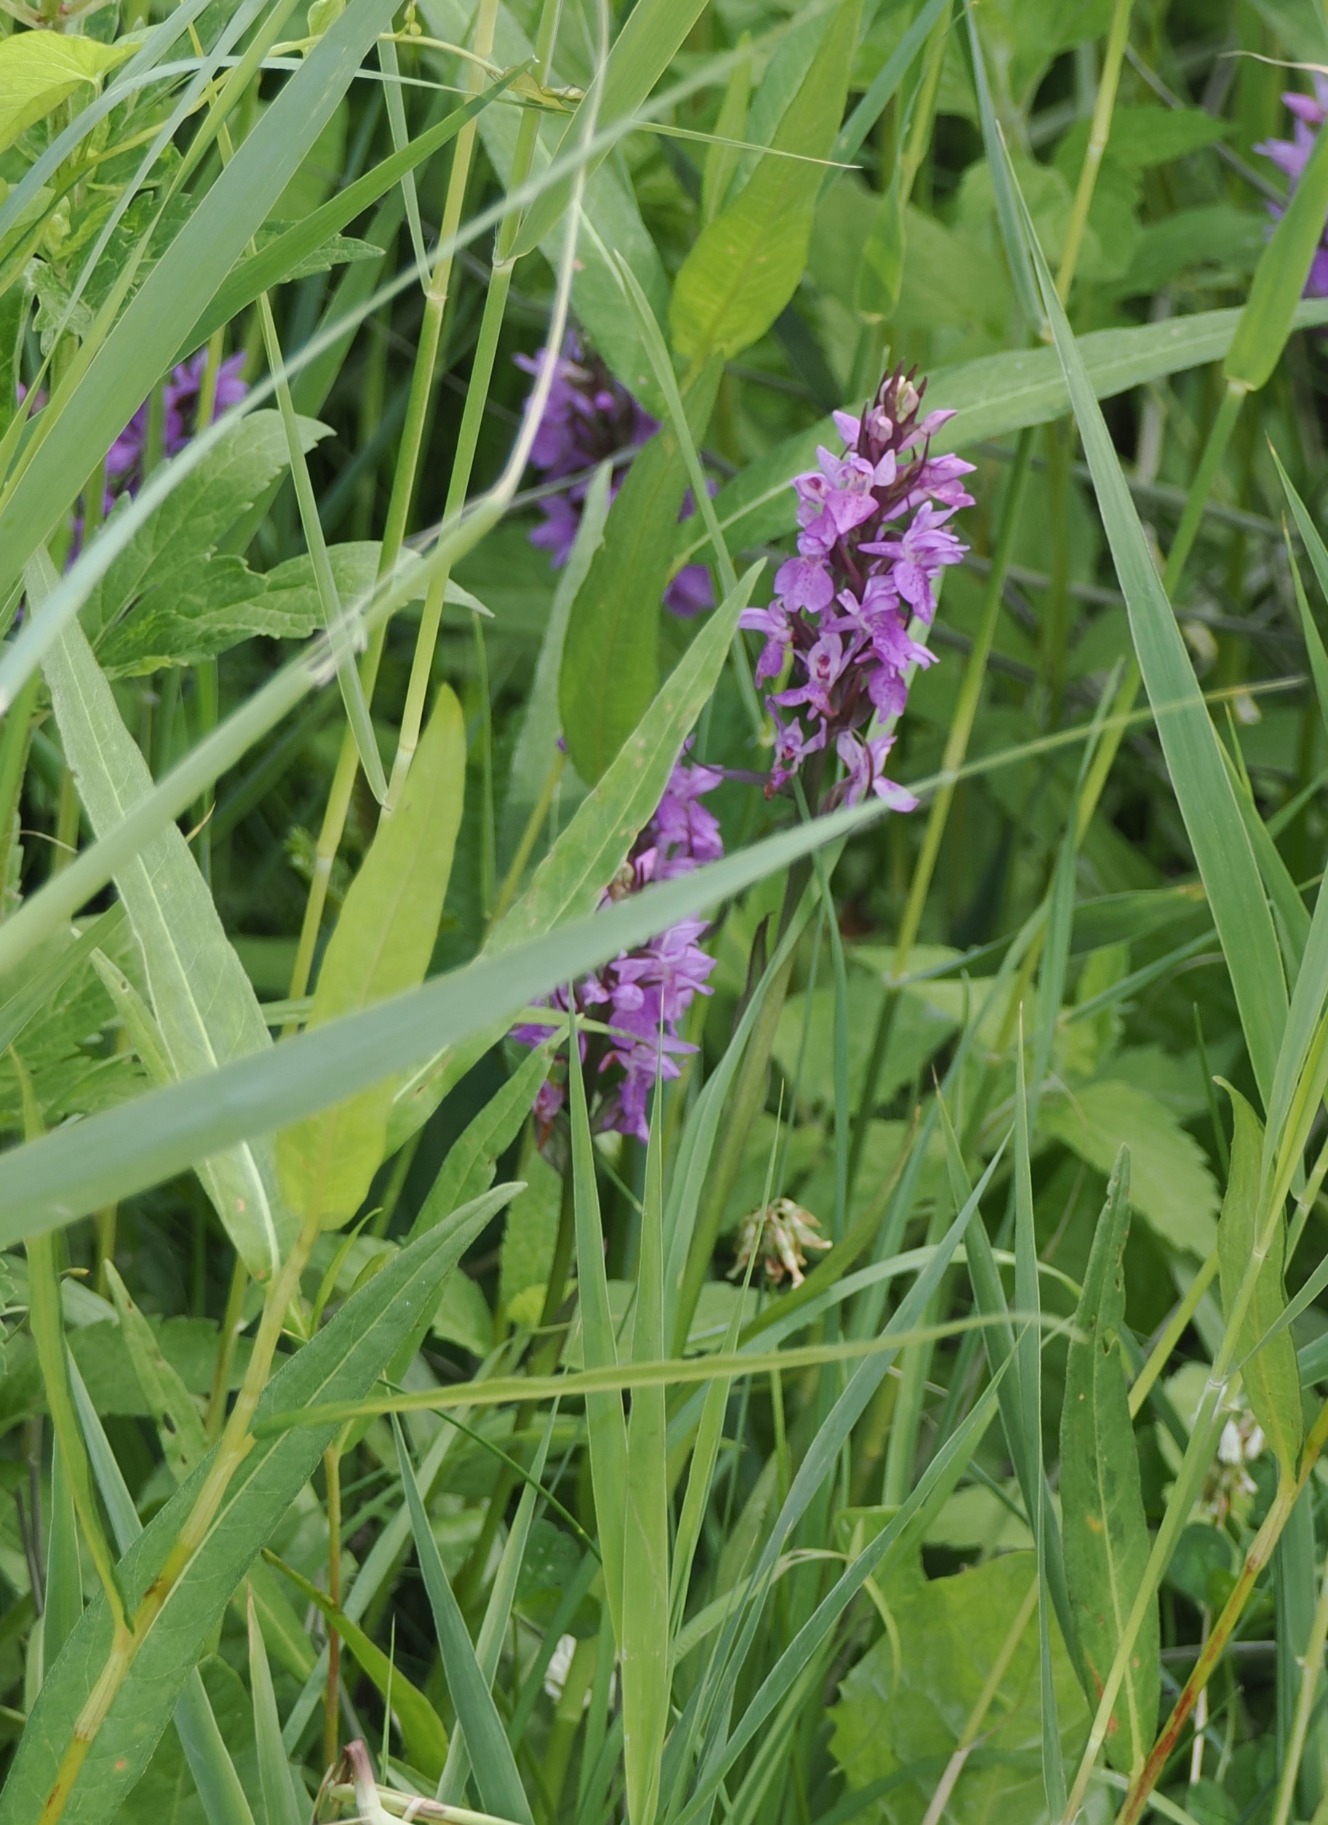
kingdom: Plantae
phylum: Tracheophyta
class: Liliopsida
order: Asparagales
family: Orchidaceae
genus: Dactylorhiza
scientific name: Dactylorhiza majalis
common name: Priklæbet gøgeurt
